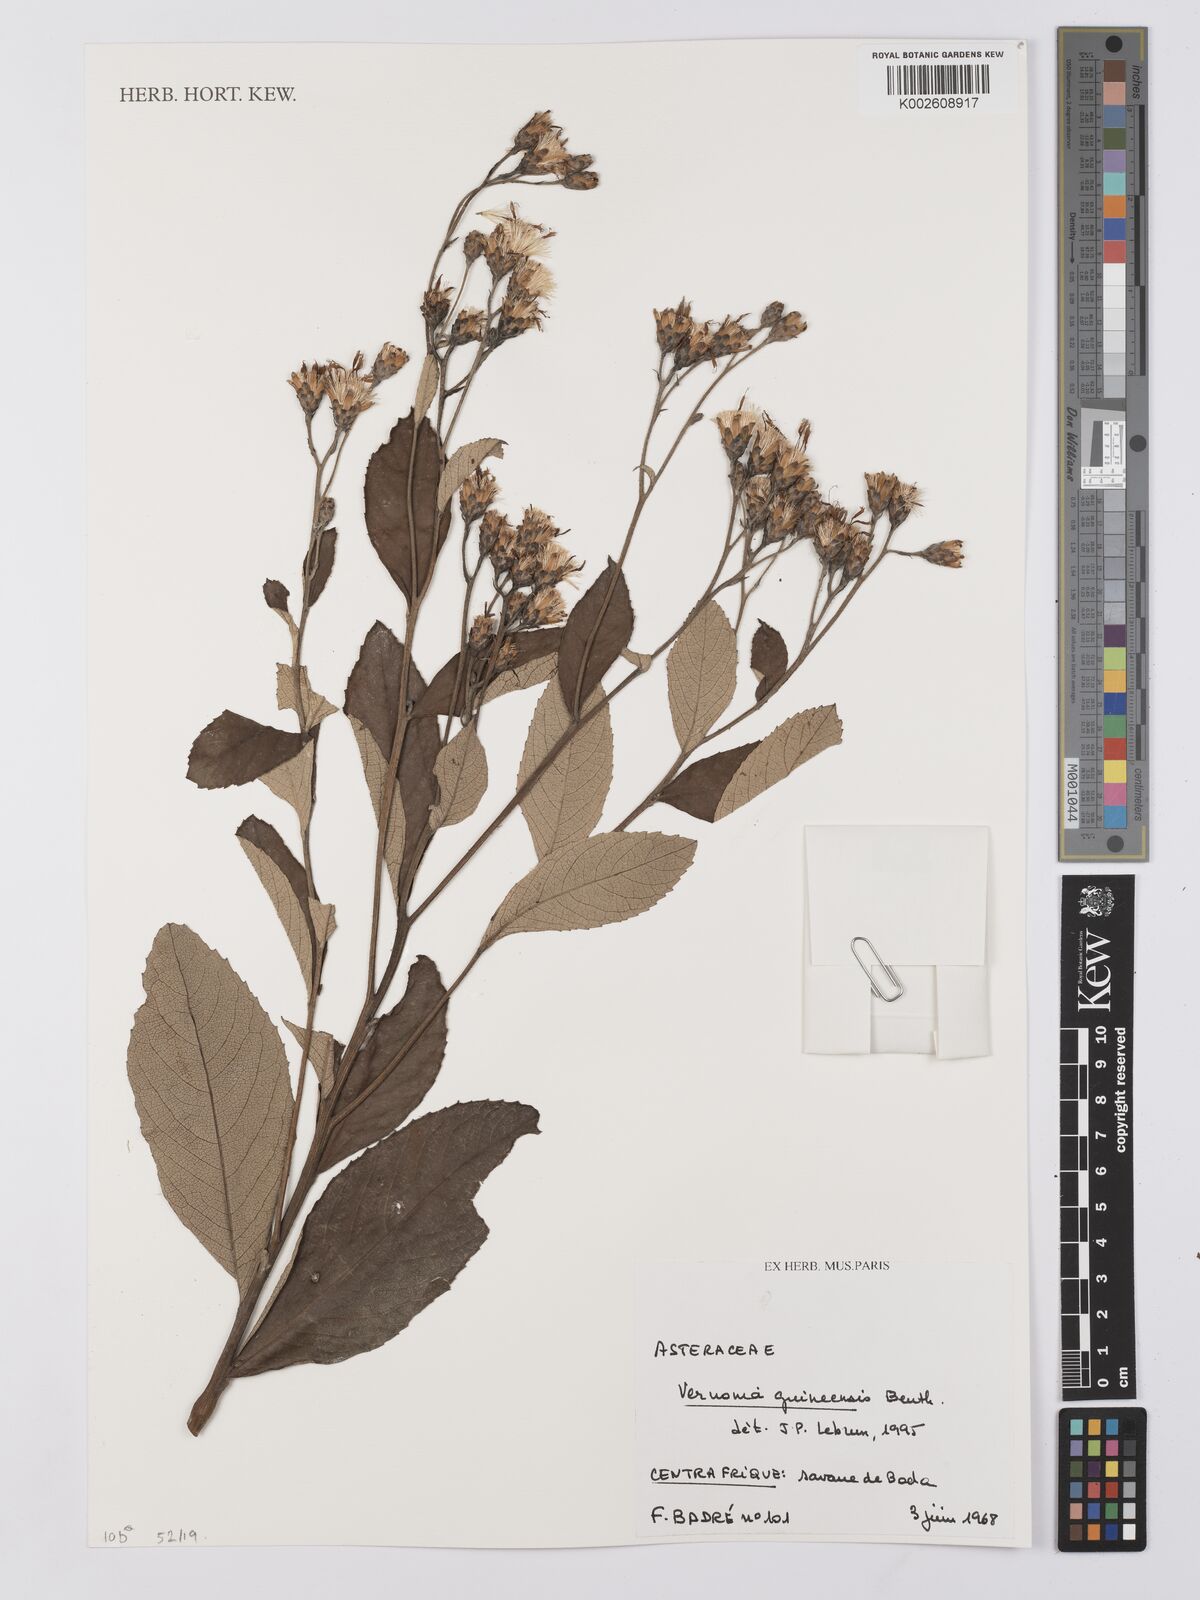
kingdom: Plantae
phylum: Tracheophyta
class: Magnoliopsida
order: Asterales
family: Asteraceae
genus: Baccharoides
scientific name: Baccharoides guineensis
